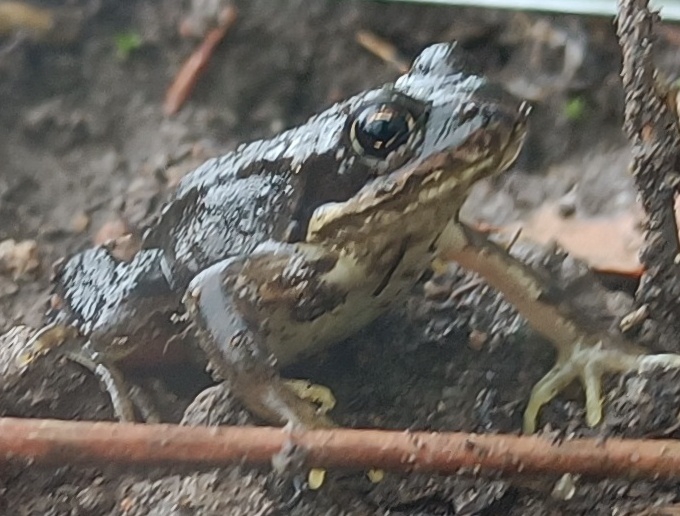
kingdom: Animalia
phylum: Chordata
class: Amphibia
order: Anura
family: Ranidae
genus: Rana
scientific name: Rana temporaria
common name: Butsnudet frø
